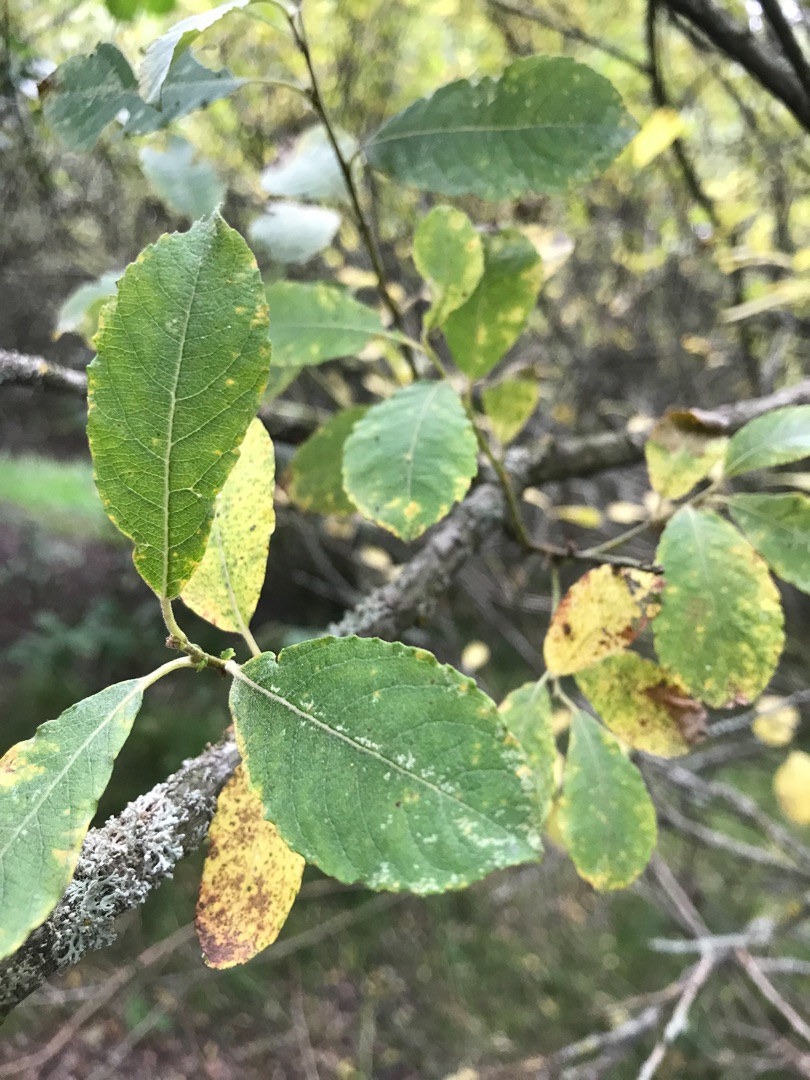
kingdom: Plantae
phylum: Tracheophyta
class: Magnoliopsida
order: Malpighiales
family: Salicaceae
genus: Salix
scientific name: Salix caprea
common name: Selje-pil
